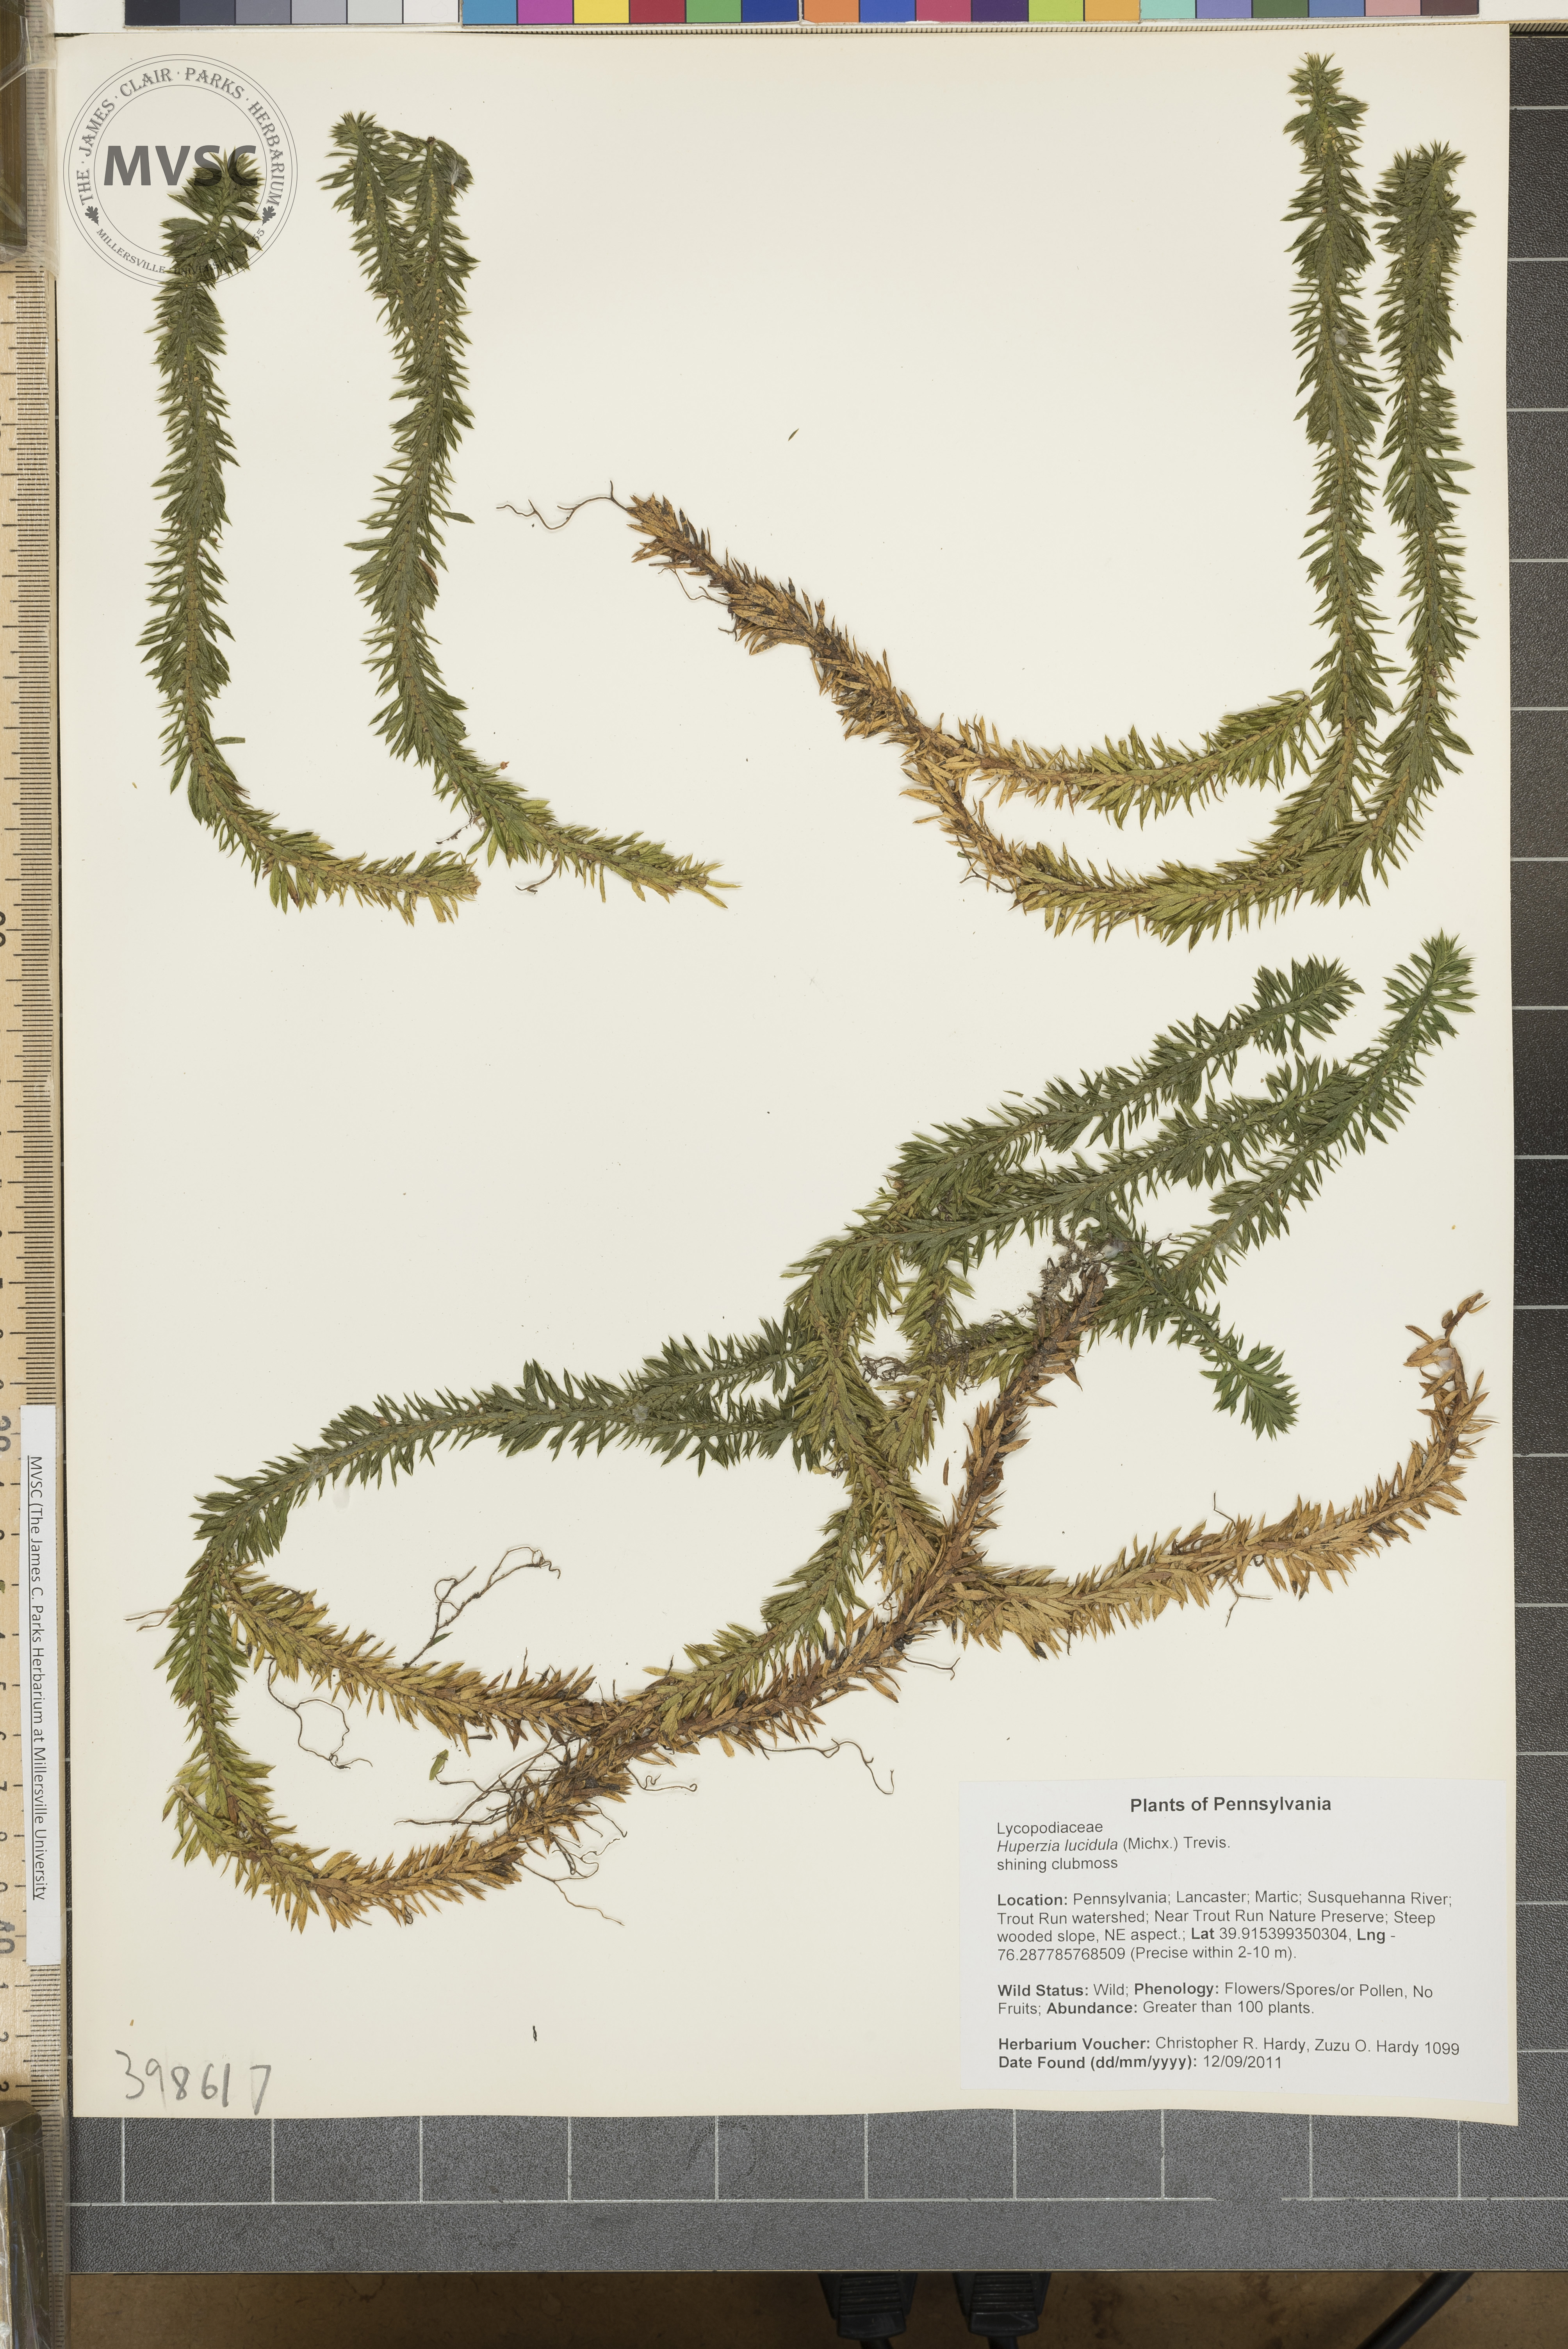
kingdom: Plantae
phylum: Tracheophyta
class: Lycopodiopsida
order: Lycopodiales
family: Lycopodiaceae
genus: Huperzia
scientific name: Huperzia lucidula
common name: Shining firmoss
